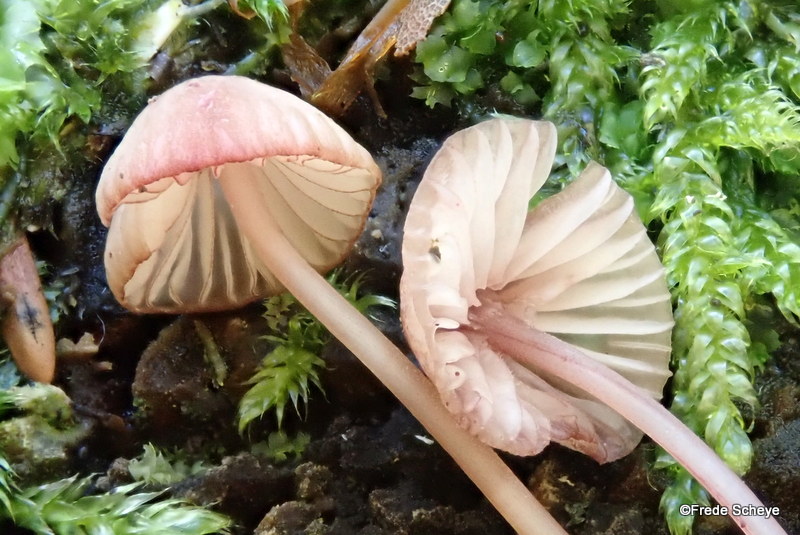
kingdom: Fungi
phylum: Basidiomycota
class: Agaricomycetes
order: Agaricales
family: Mycenaceae
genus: Mycena
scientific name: Mycena sanguinolenta
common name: rødmælket huesvamp
